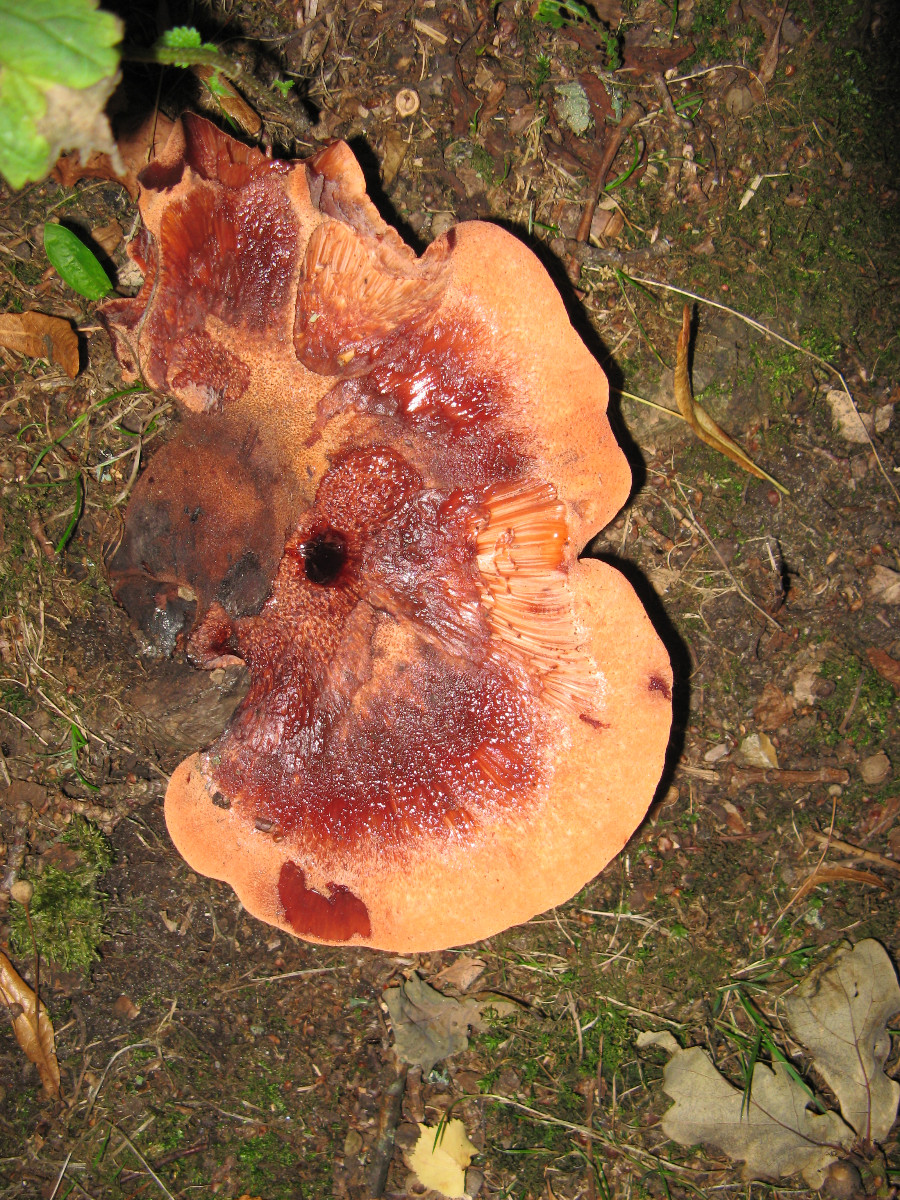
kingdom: Fungi
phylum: Basidiomycota
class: Agaricomycetes
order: Agaricales
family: Fistulinaceae
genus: Fistulina
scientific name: Fistulina hepatica
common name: oksetunge
